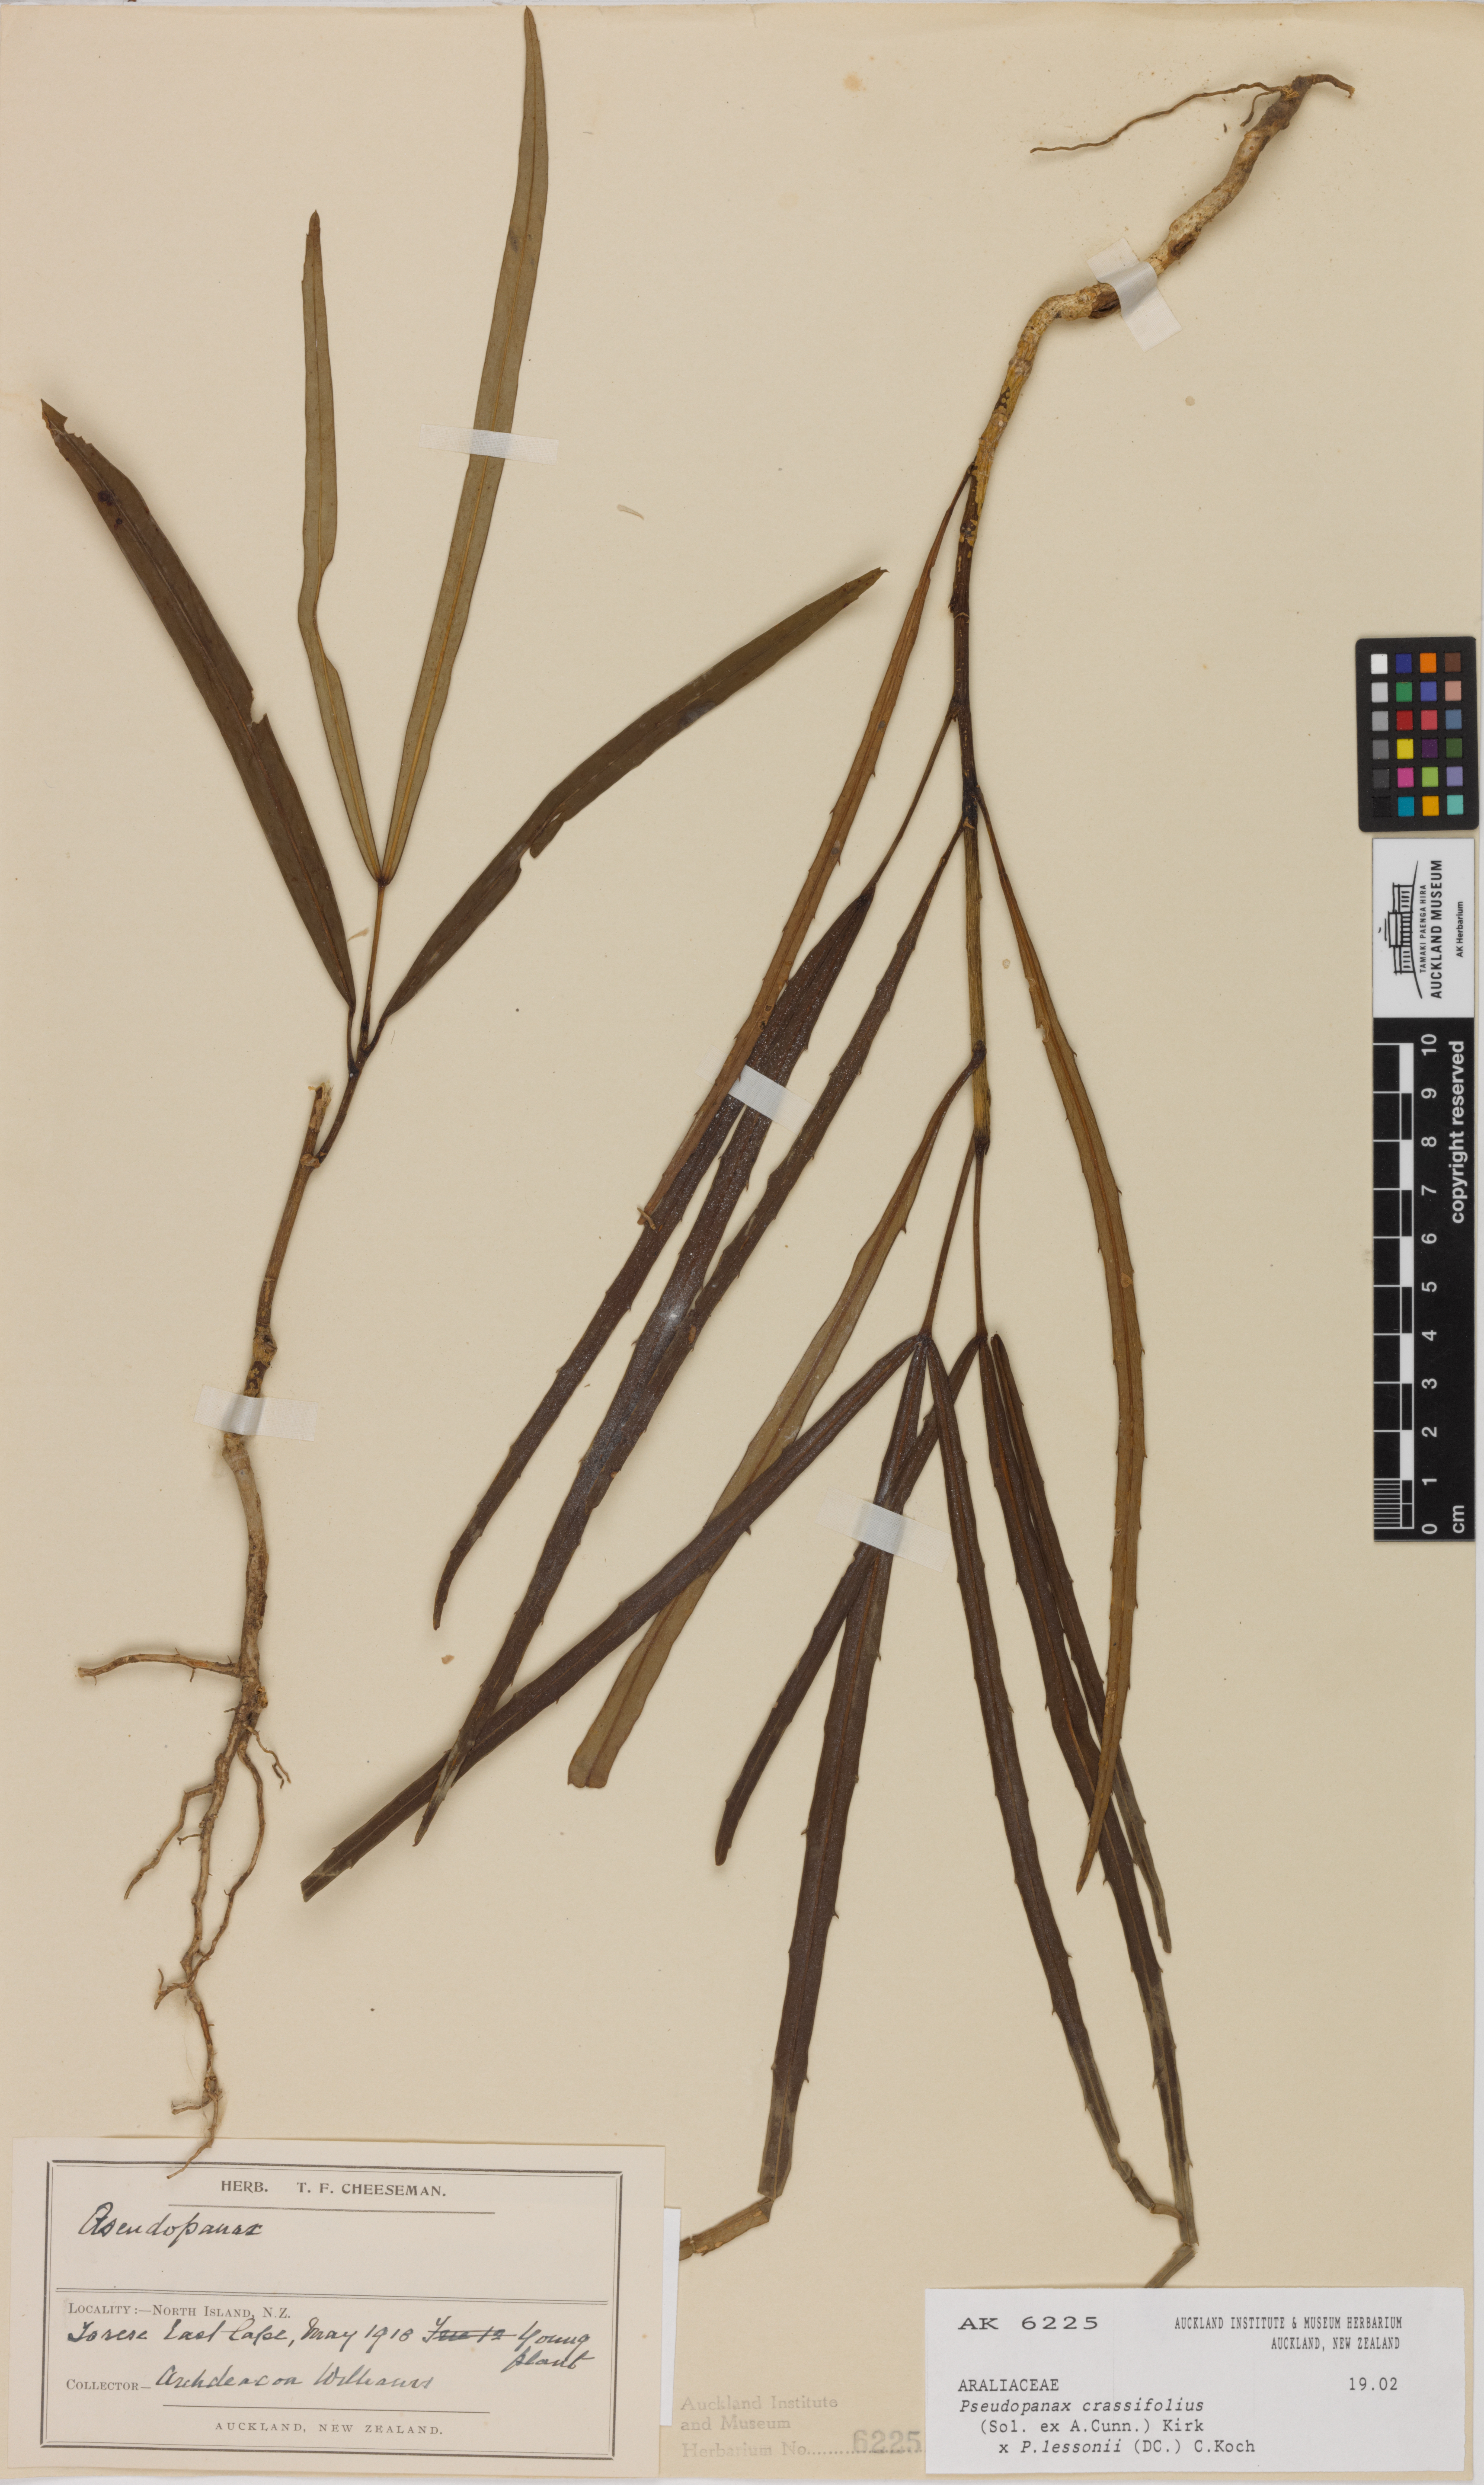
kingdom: Plantae
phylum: Tracheophyta
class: Magnoliopsida
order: Apiales
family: Araliaceae
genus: Pseudopanax
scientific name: Pseudopanax
